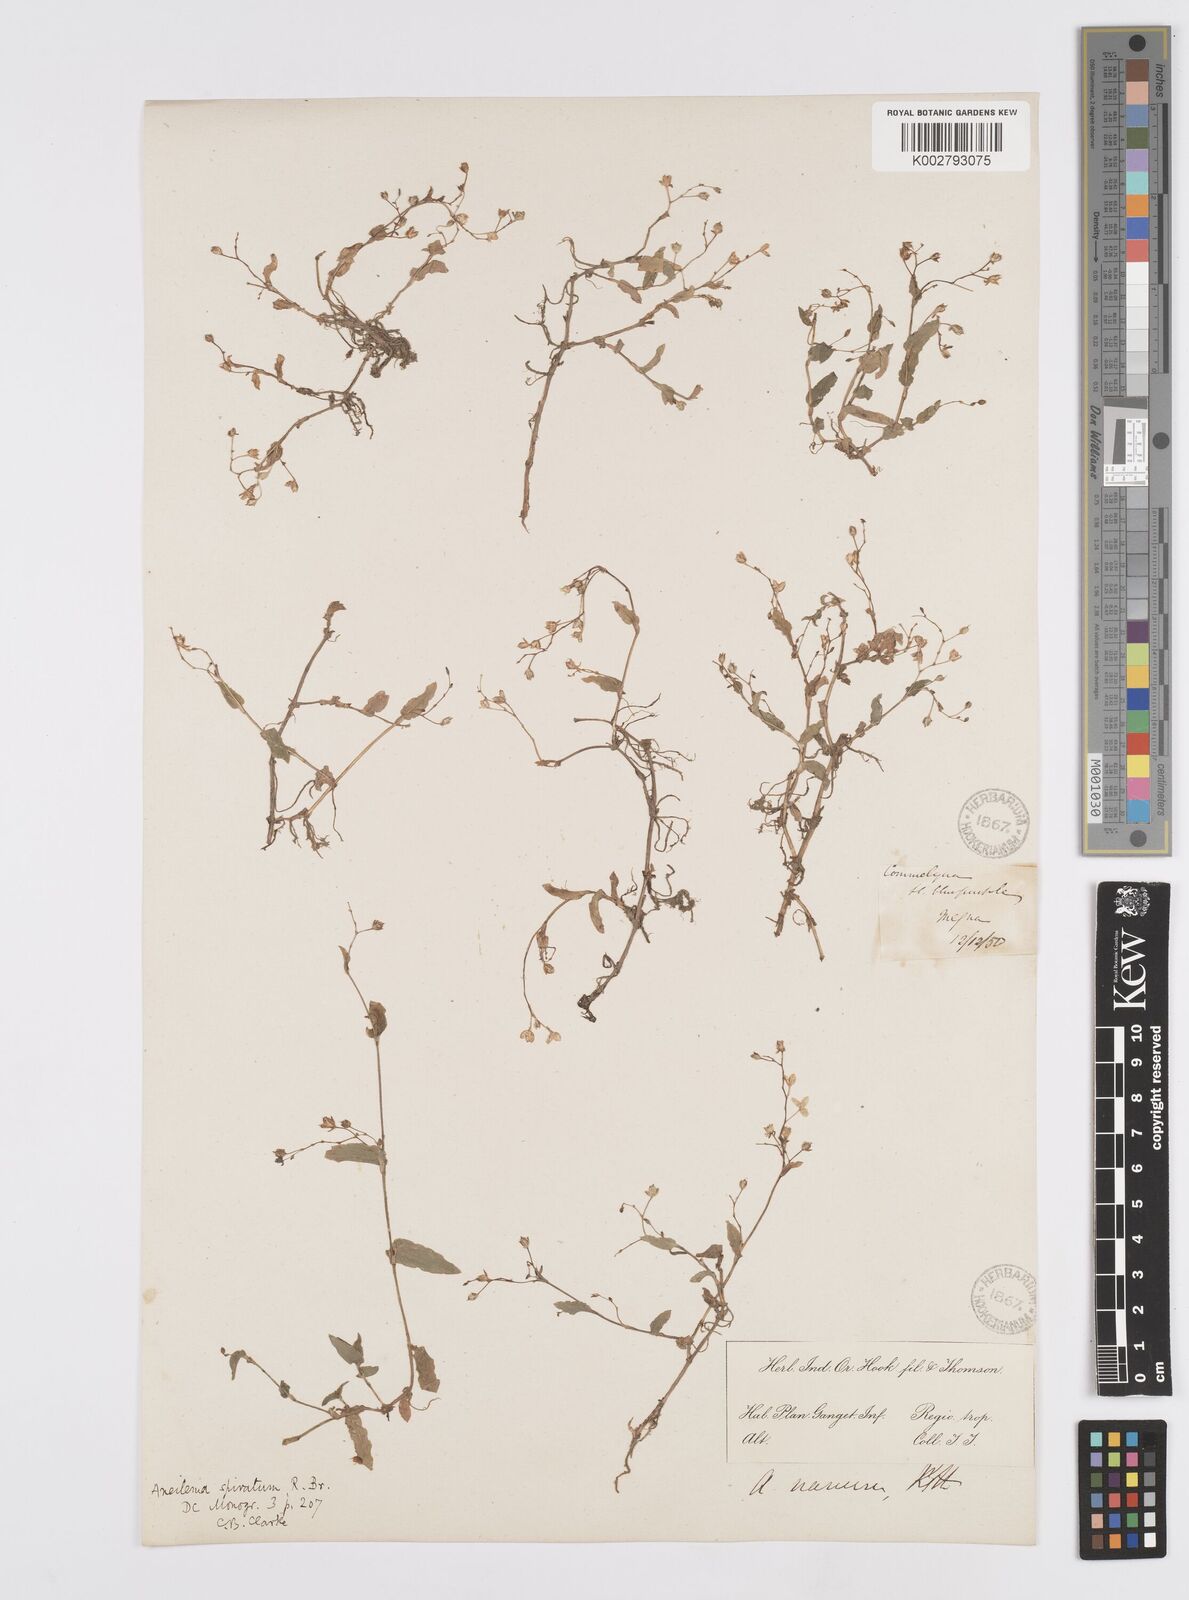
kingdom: Plantae
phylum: Tracheophyta
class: Liliopsida
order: Commelinales
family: Commelinaceae
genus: Murdannia
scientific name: Murdannia spirata
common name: Asiatic dewflower
